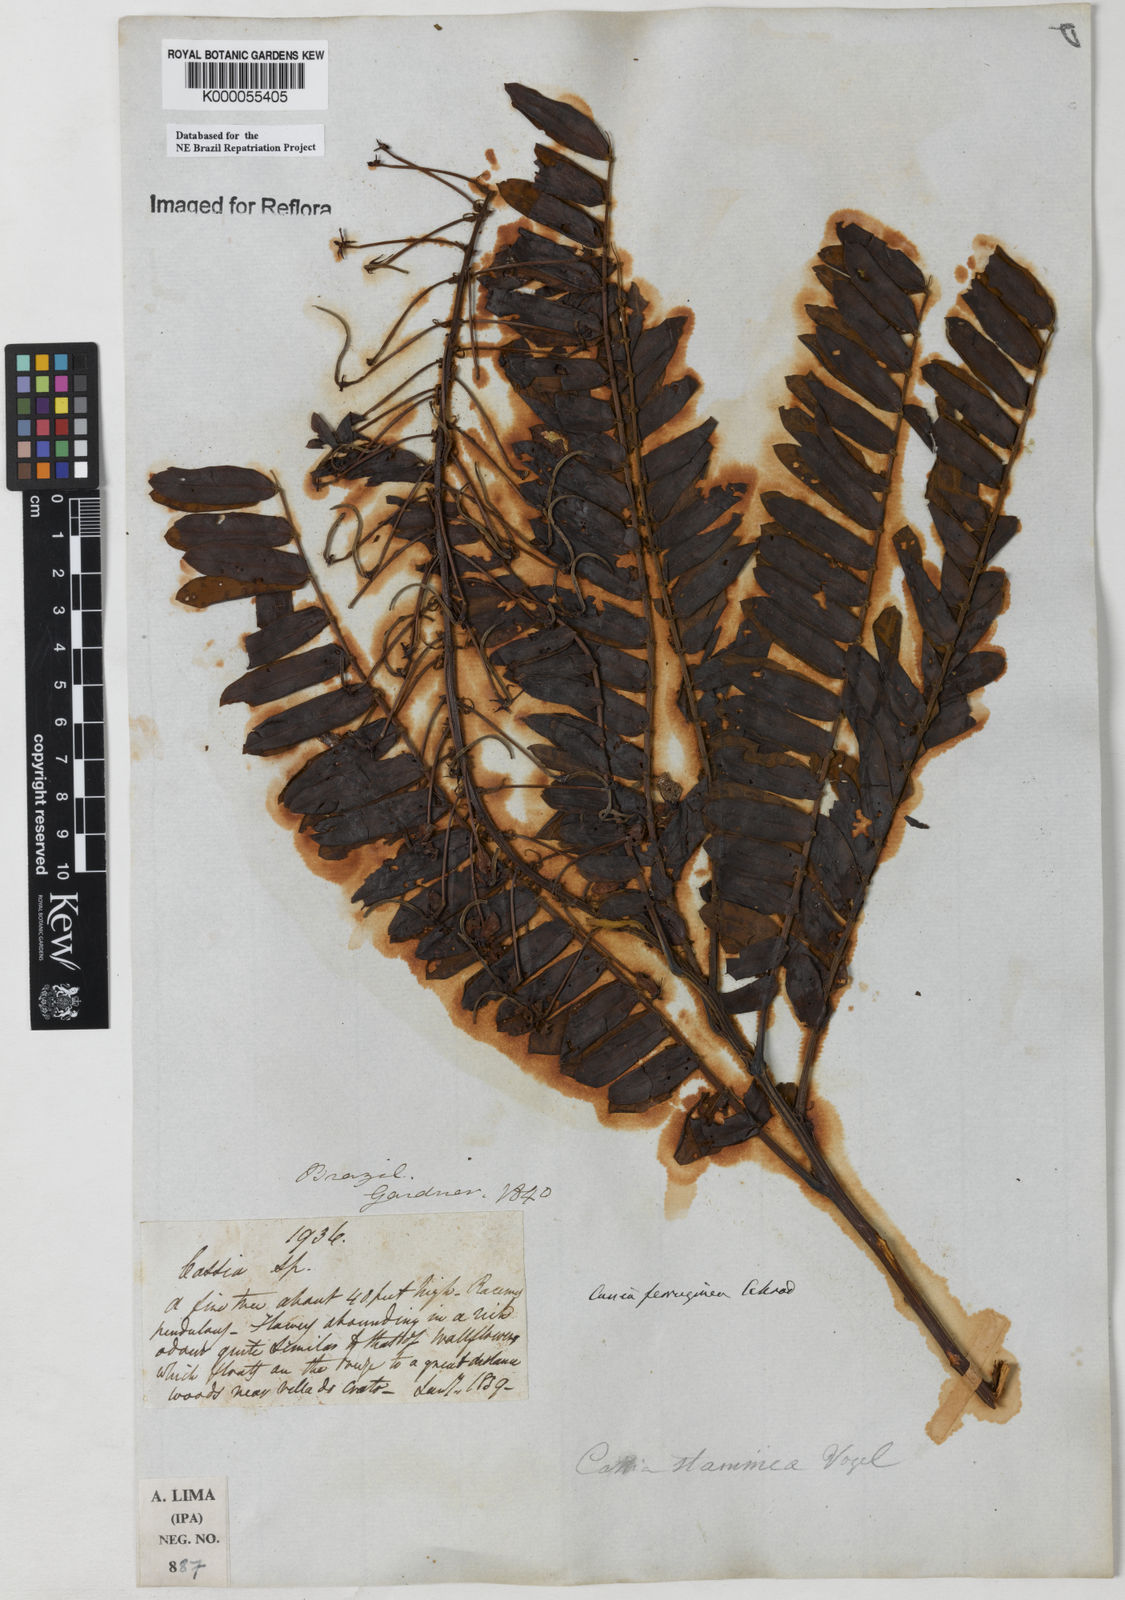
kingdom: Plantae
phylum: Tracheophyta
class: Magnoliopsida
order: Fabales
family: Fabaceae
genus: Cassia
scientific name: Cassia ferruginea
